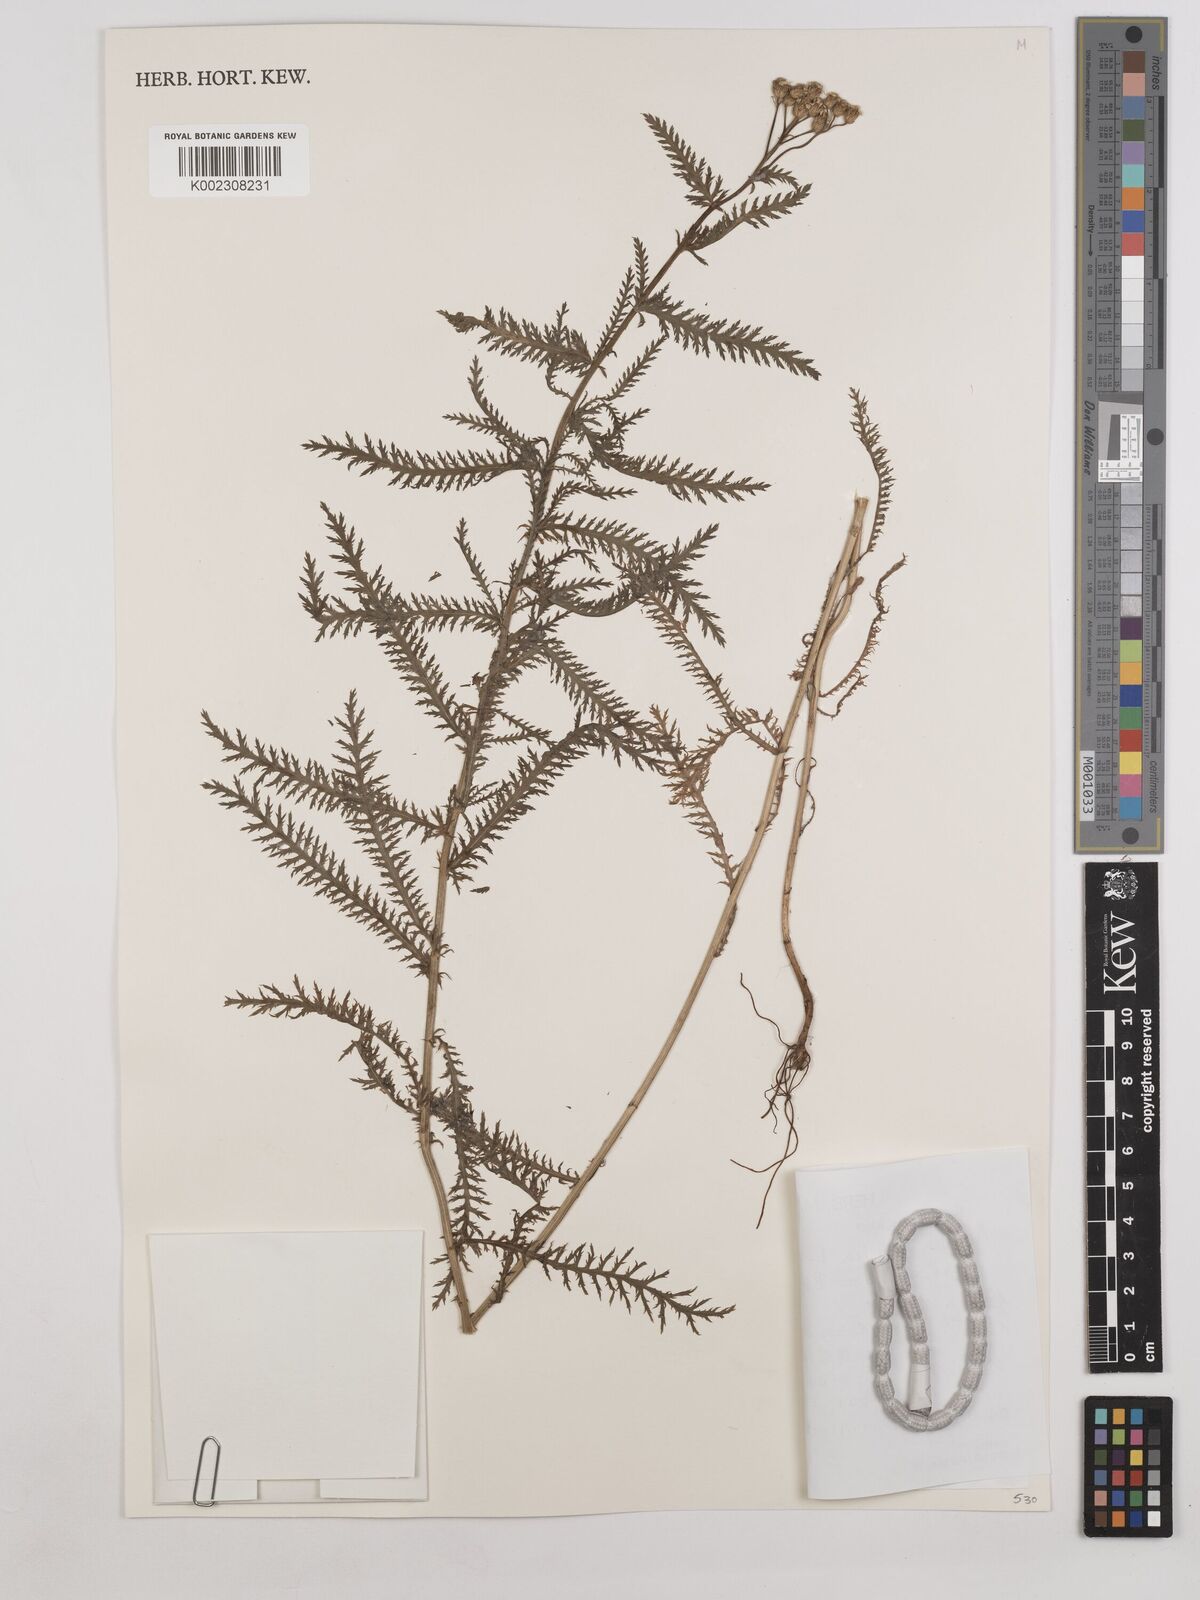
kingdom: Plantae
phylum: Tracheophyta
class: Magnoliopsida
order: Asterales
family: Asteraceae
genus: Achillea
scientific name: Achillea alpina
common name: Siberian yarrow
